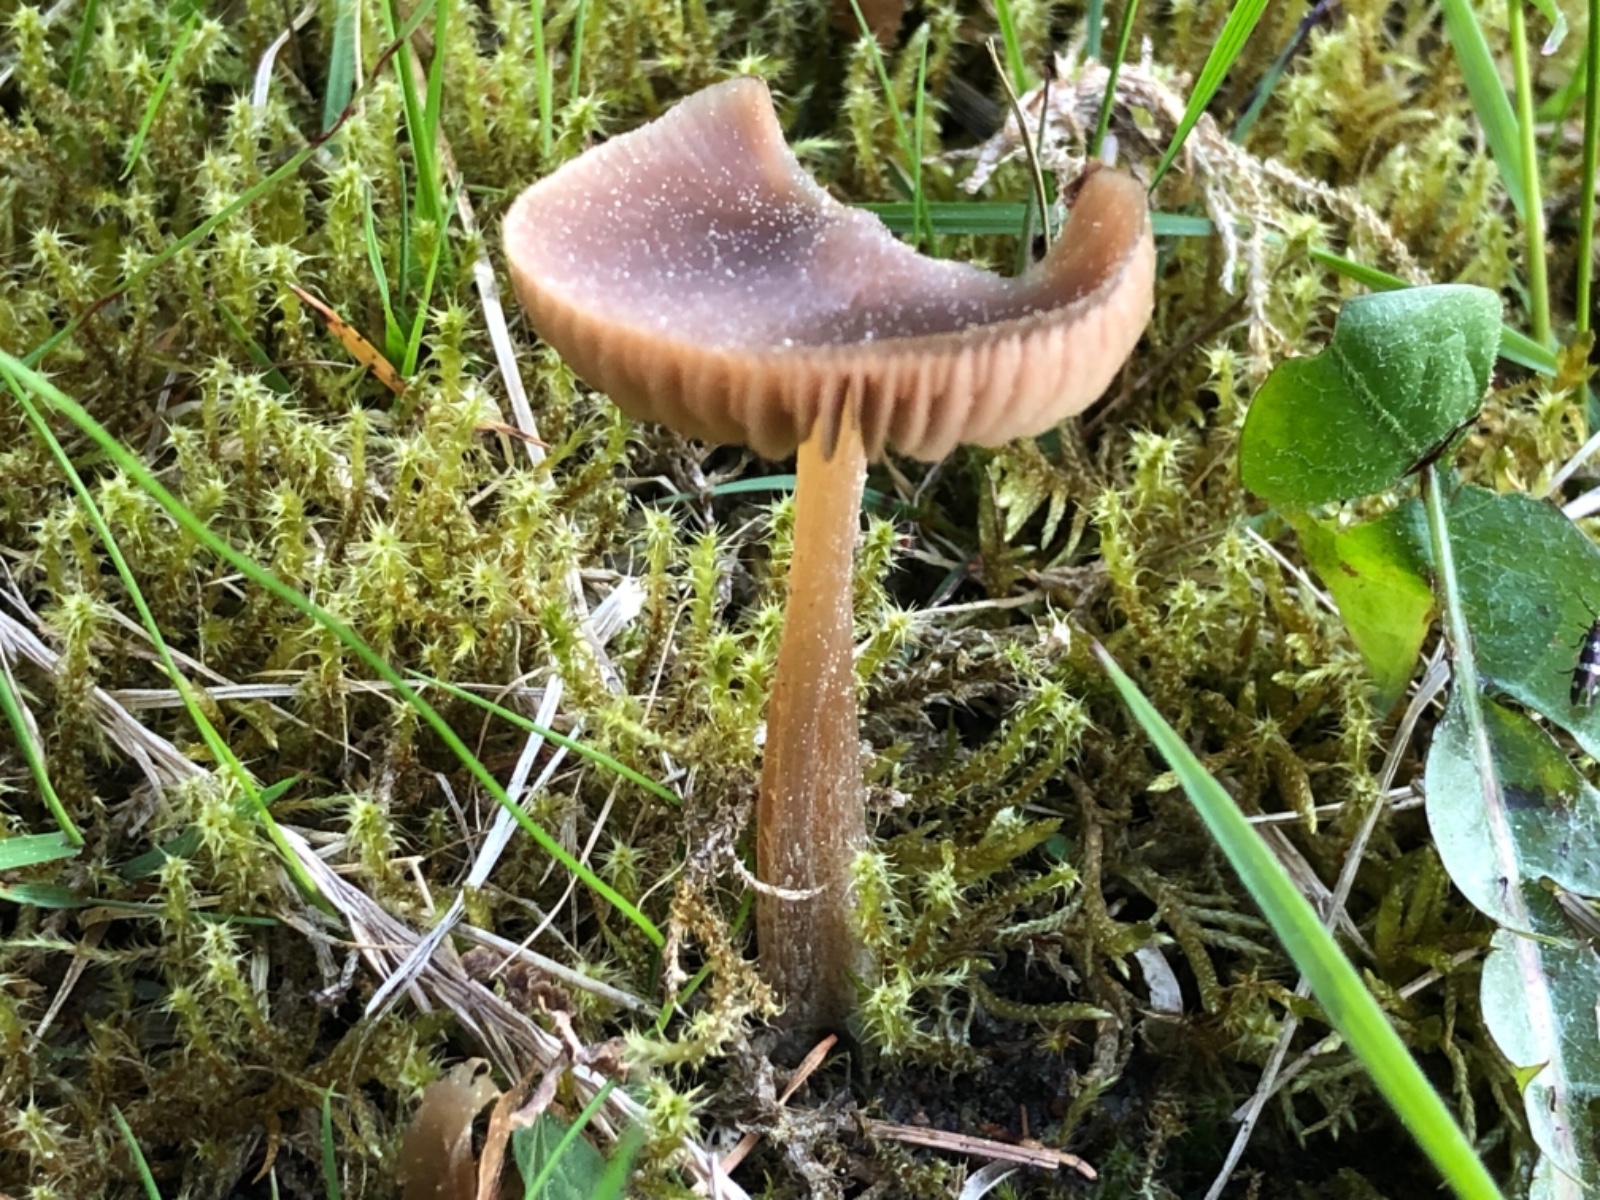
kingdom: Fungi
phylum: Basidiomycota
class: Agaricomycetes
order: Agaricales
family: Entolomataceae
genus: Entoloma
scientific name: Entoloma cuneatum
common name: dunstokket rødblad
